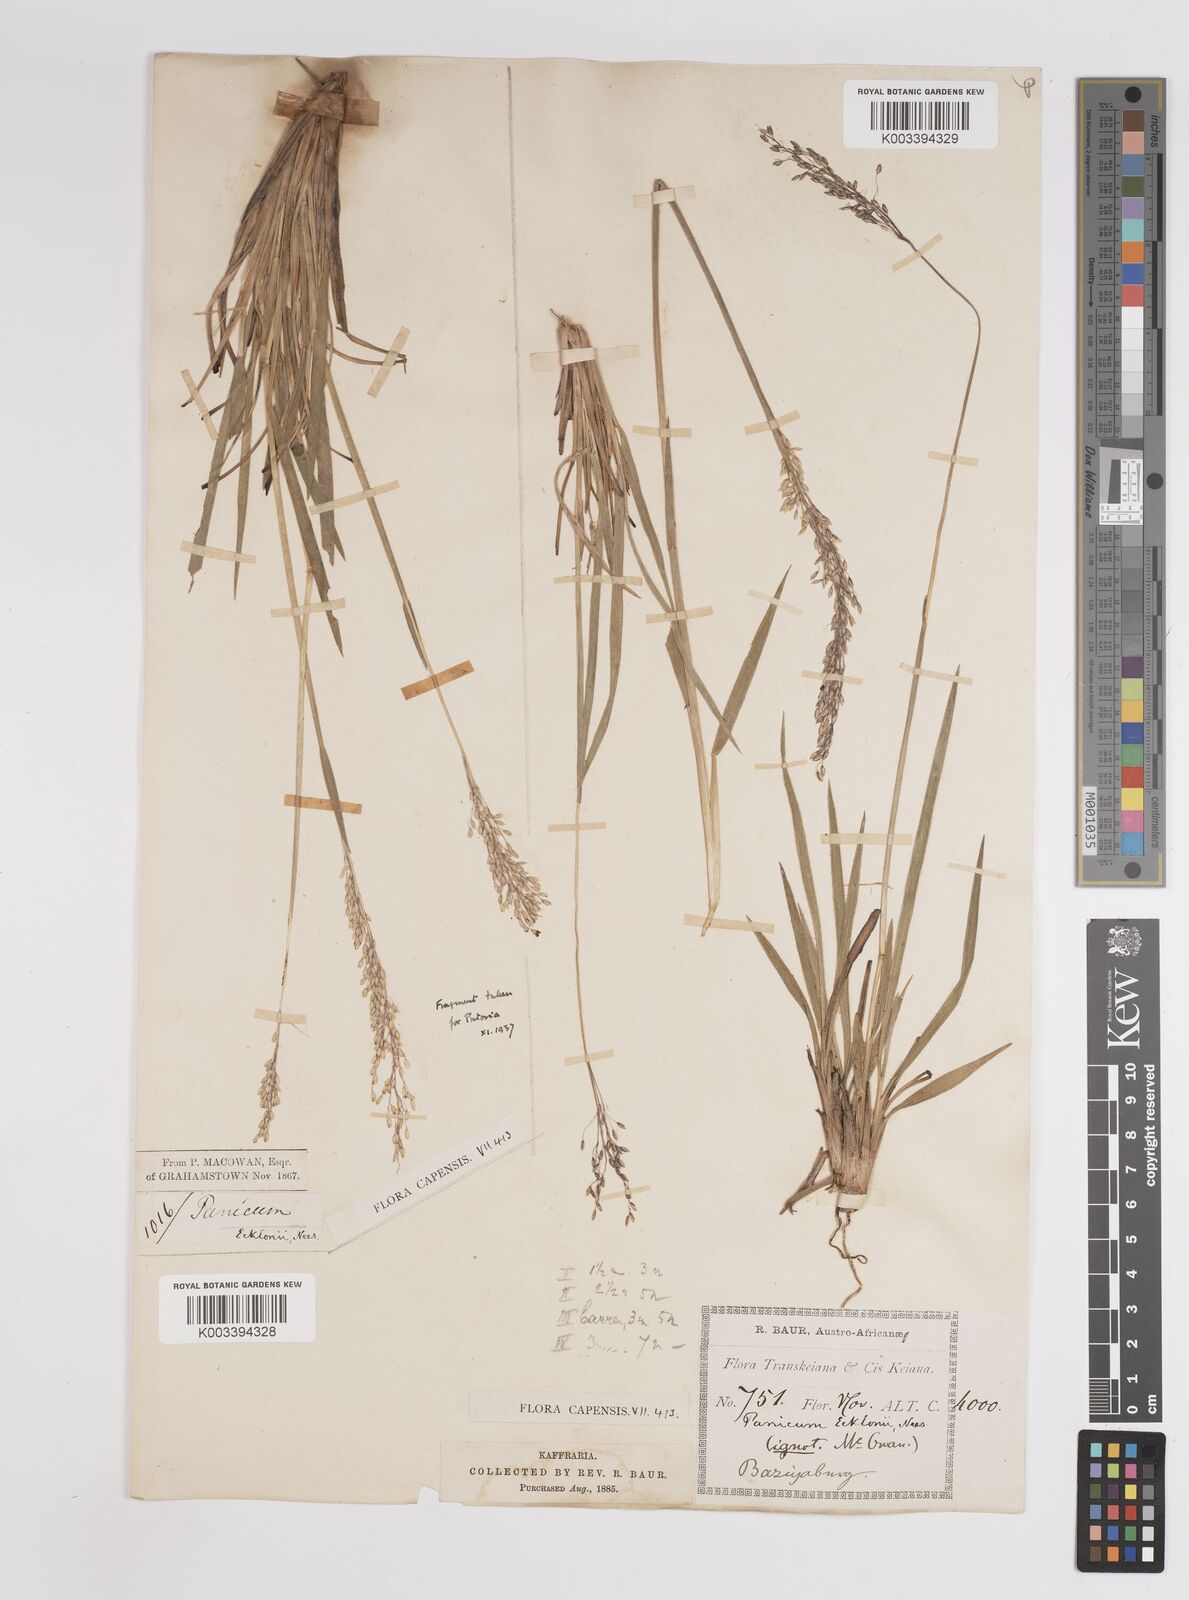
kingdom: Plantae
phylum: Tracheophyta
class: Liliopsida
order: Poales
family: Poaceae
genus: Adenochloa
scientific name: Adenochloa ecklonii
